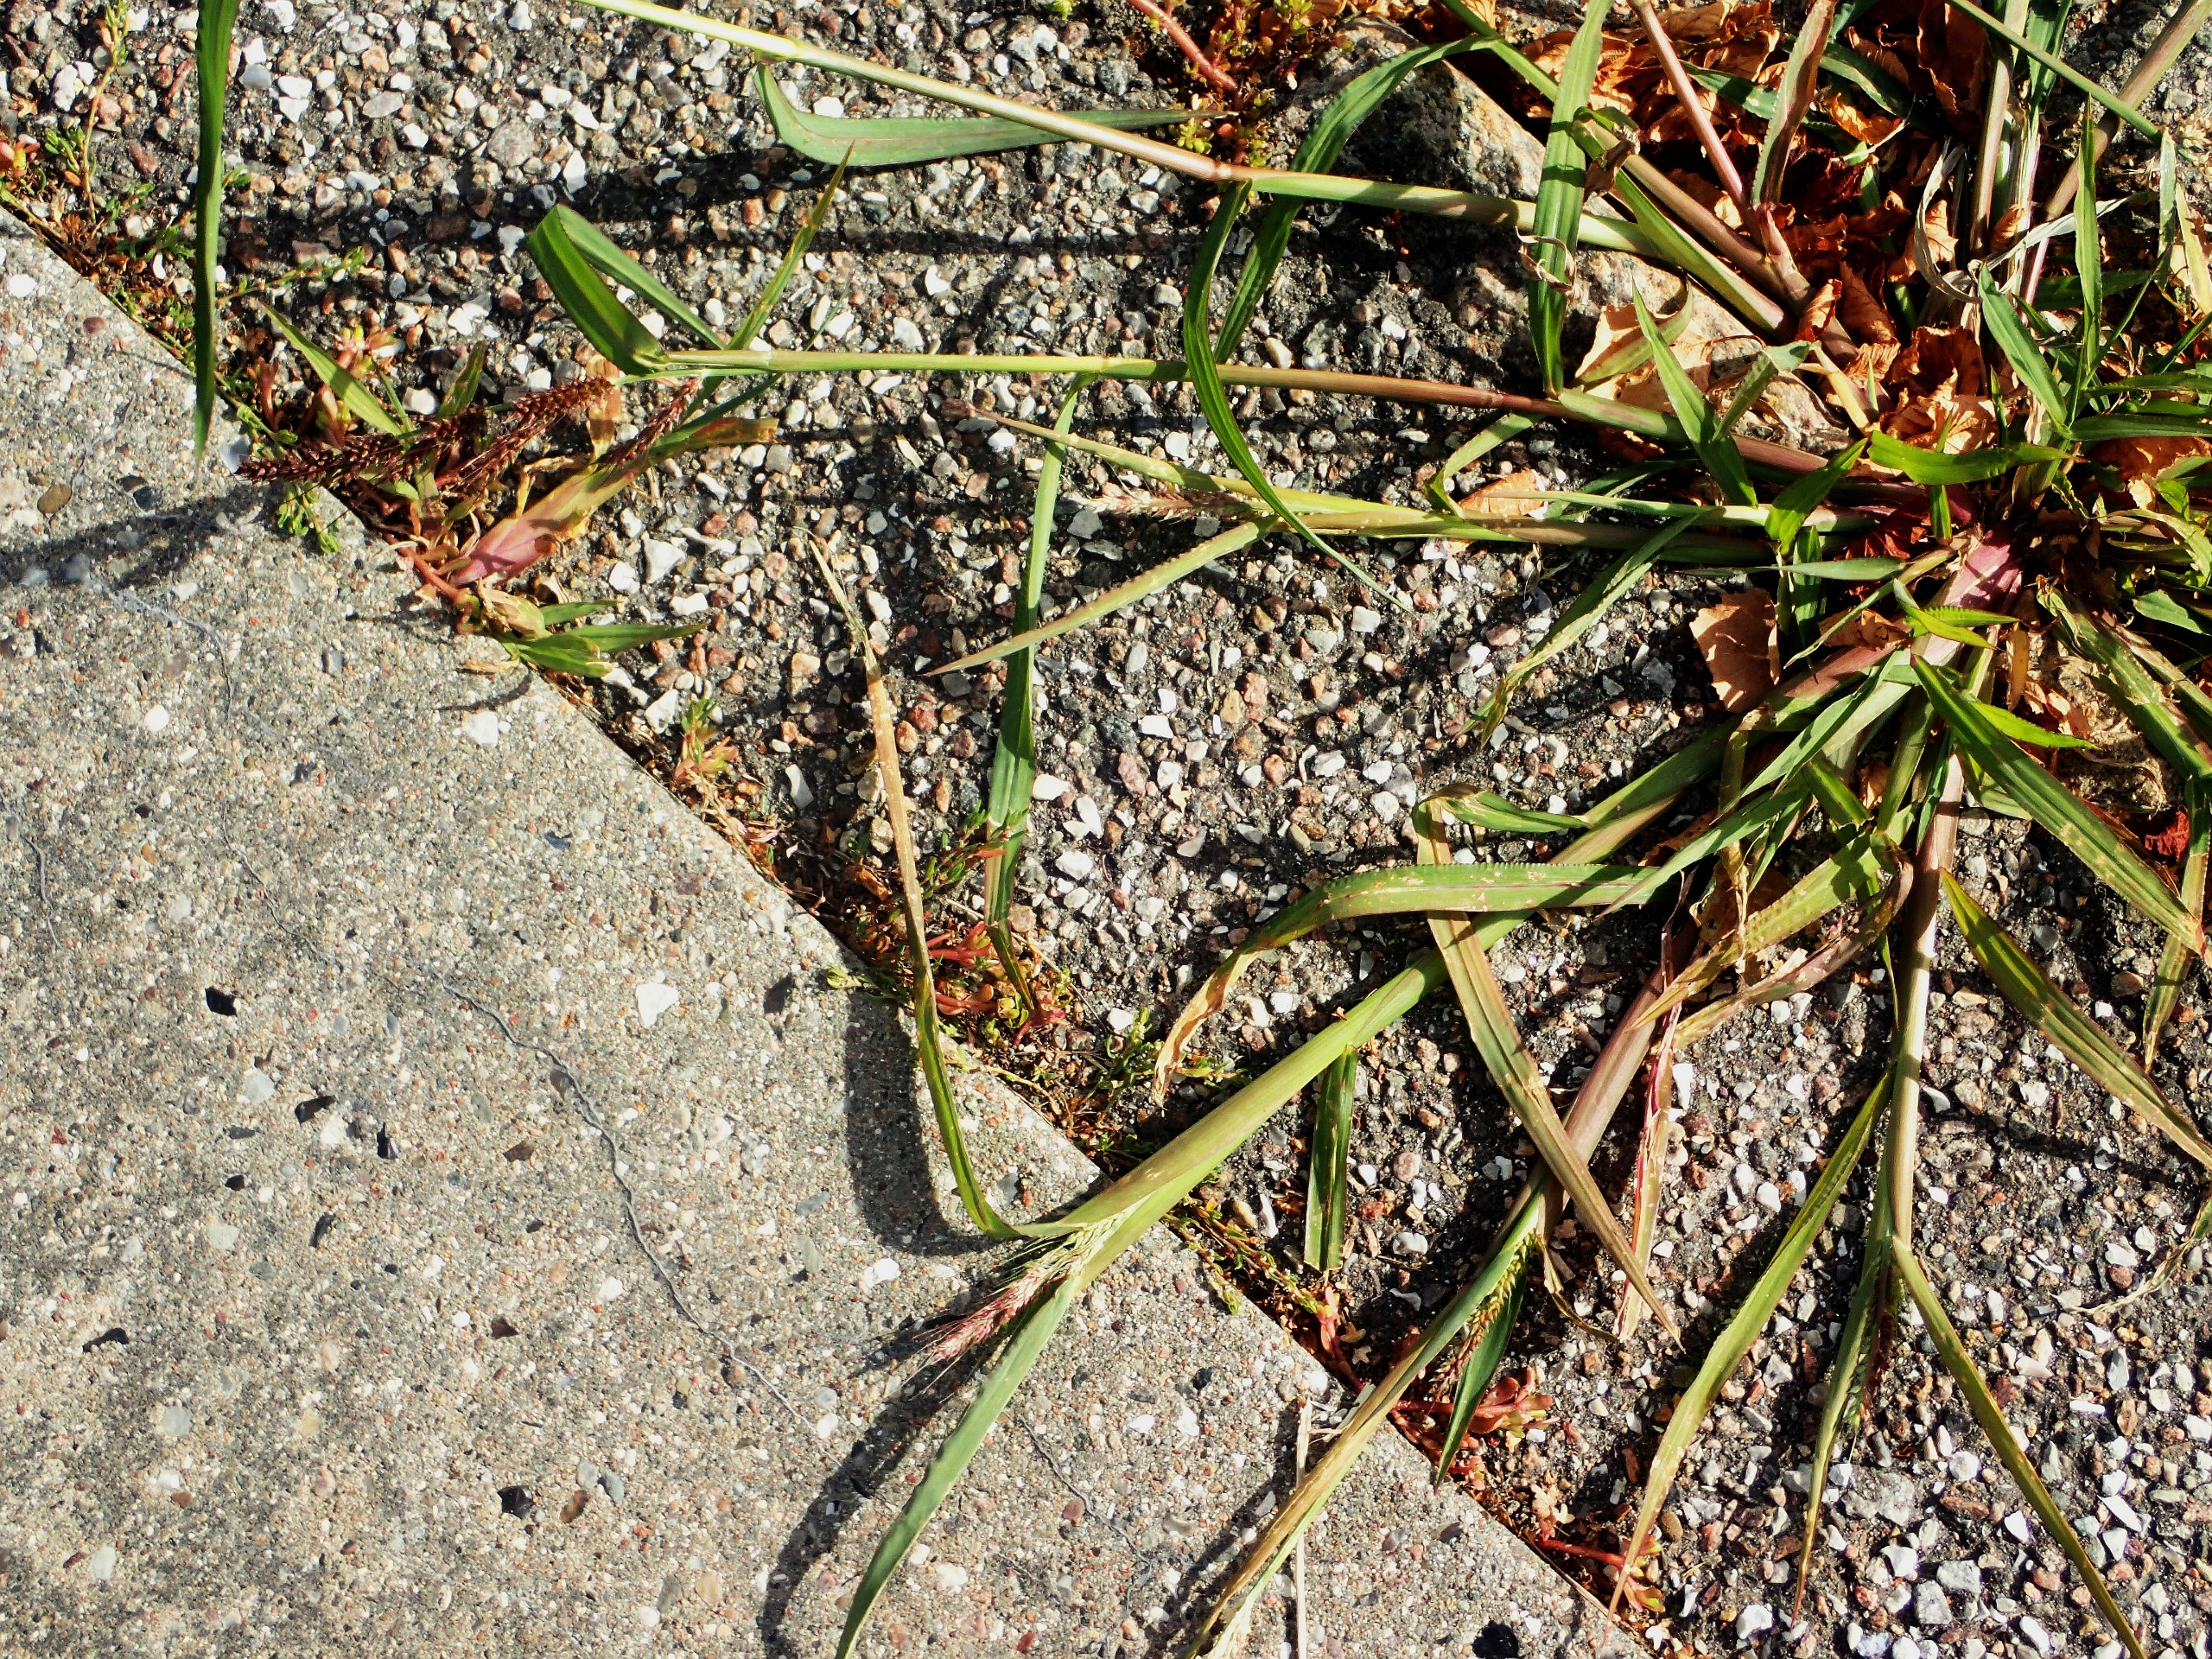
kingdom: Plantae
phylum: Tracheophyta
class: Liliopsida
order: Poales
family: Poaceae
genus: Echinochloa
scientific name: Echinochloa crus-galli
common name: Almindelig hanespore
